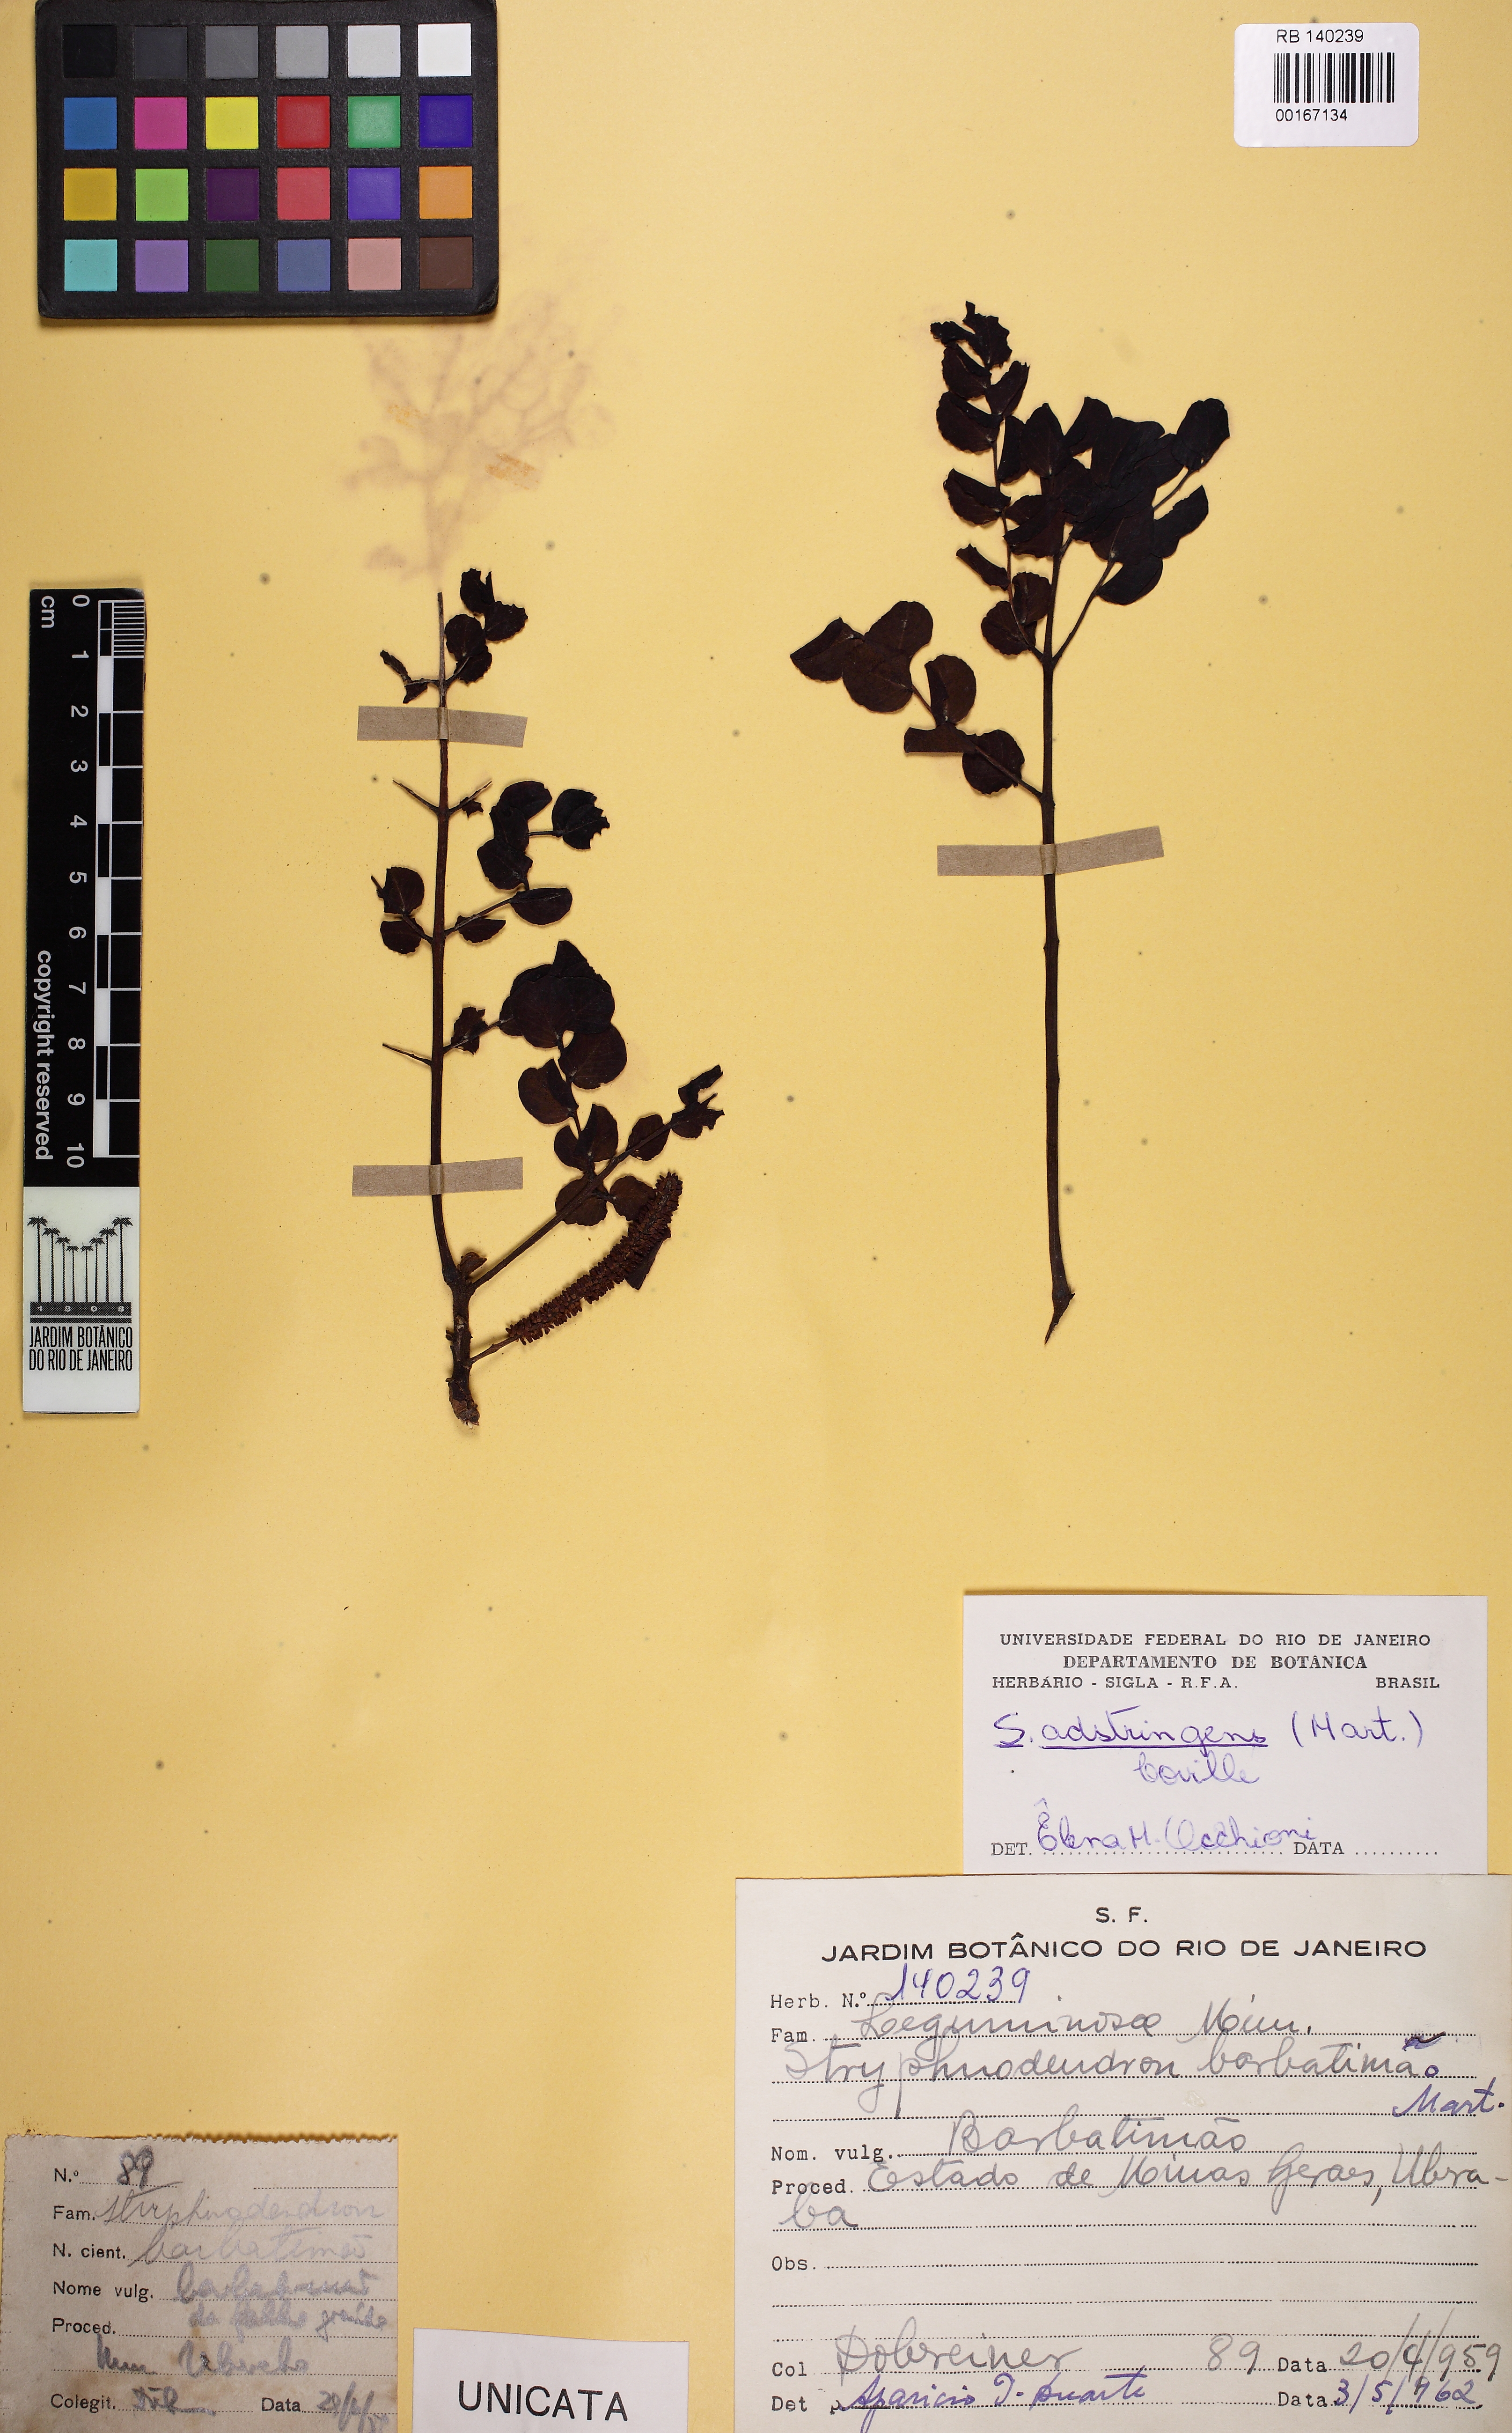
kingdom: Plantae
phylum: Tracheophyta
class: Magnoliopsida
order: Fabales
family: Fabaceae
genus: Stryphnodendron
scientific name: Stryphnodendron adstringens
